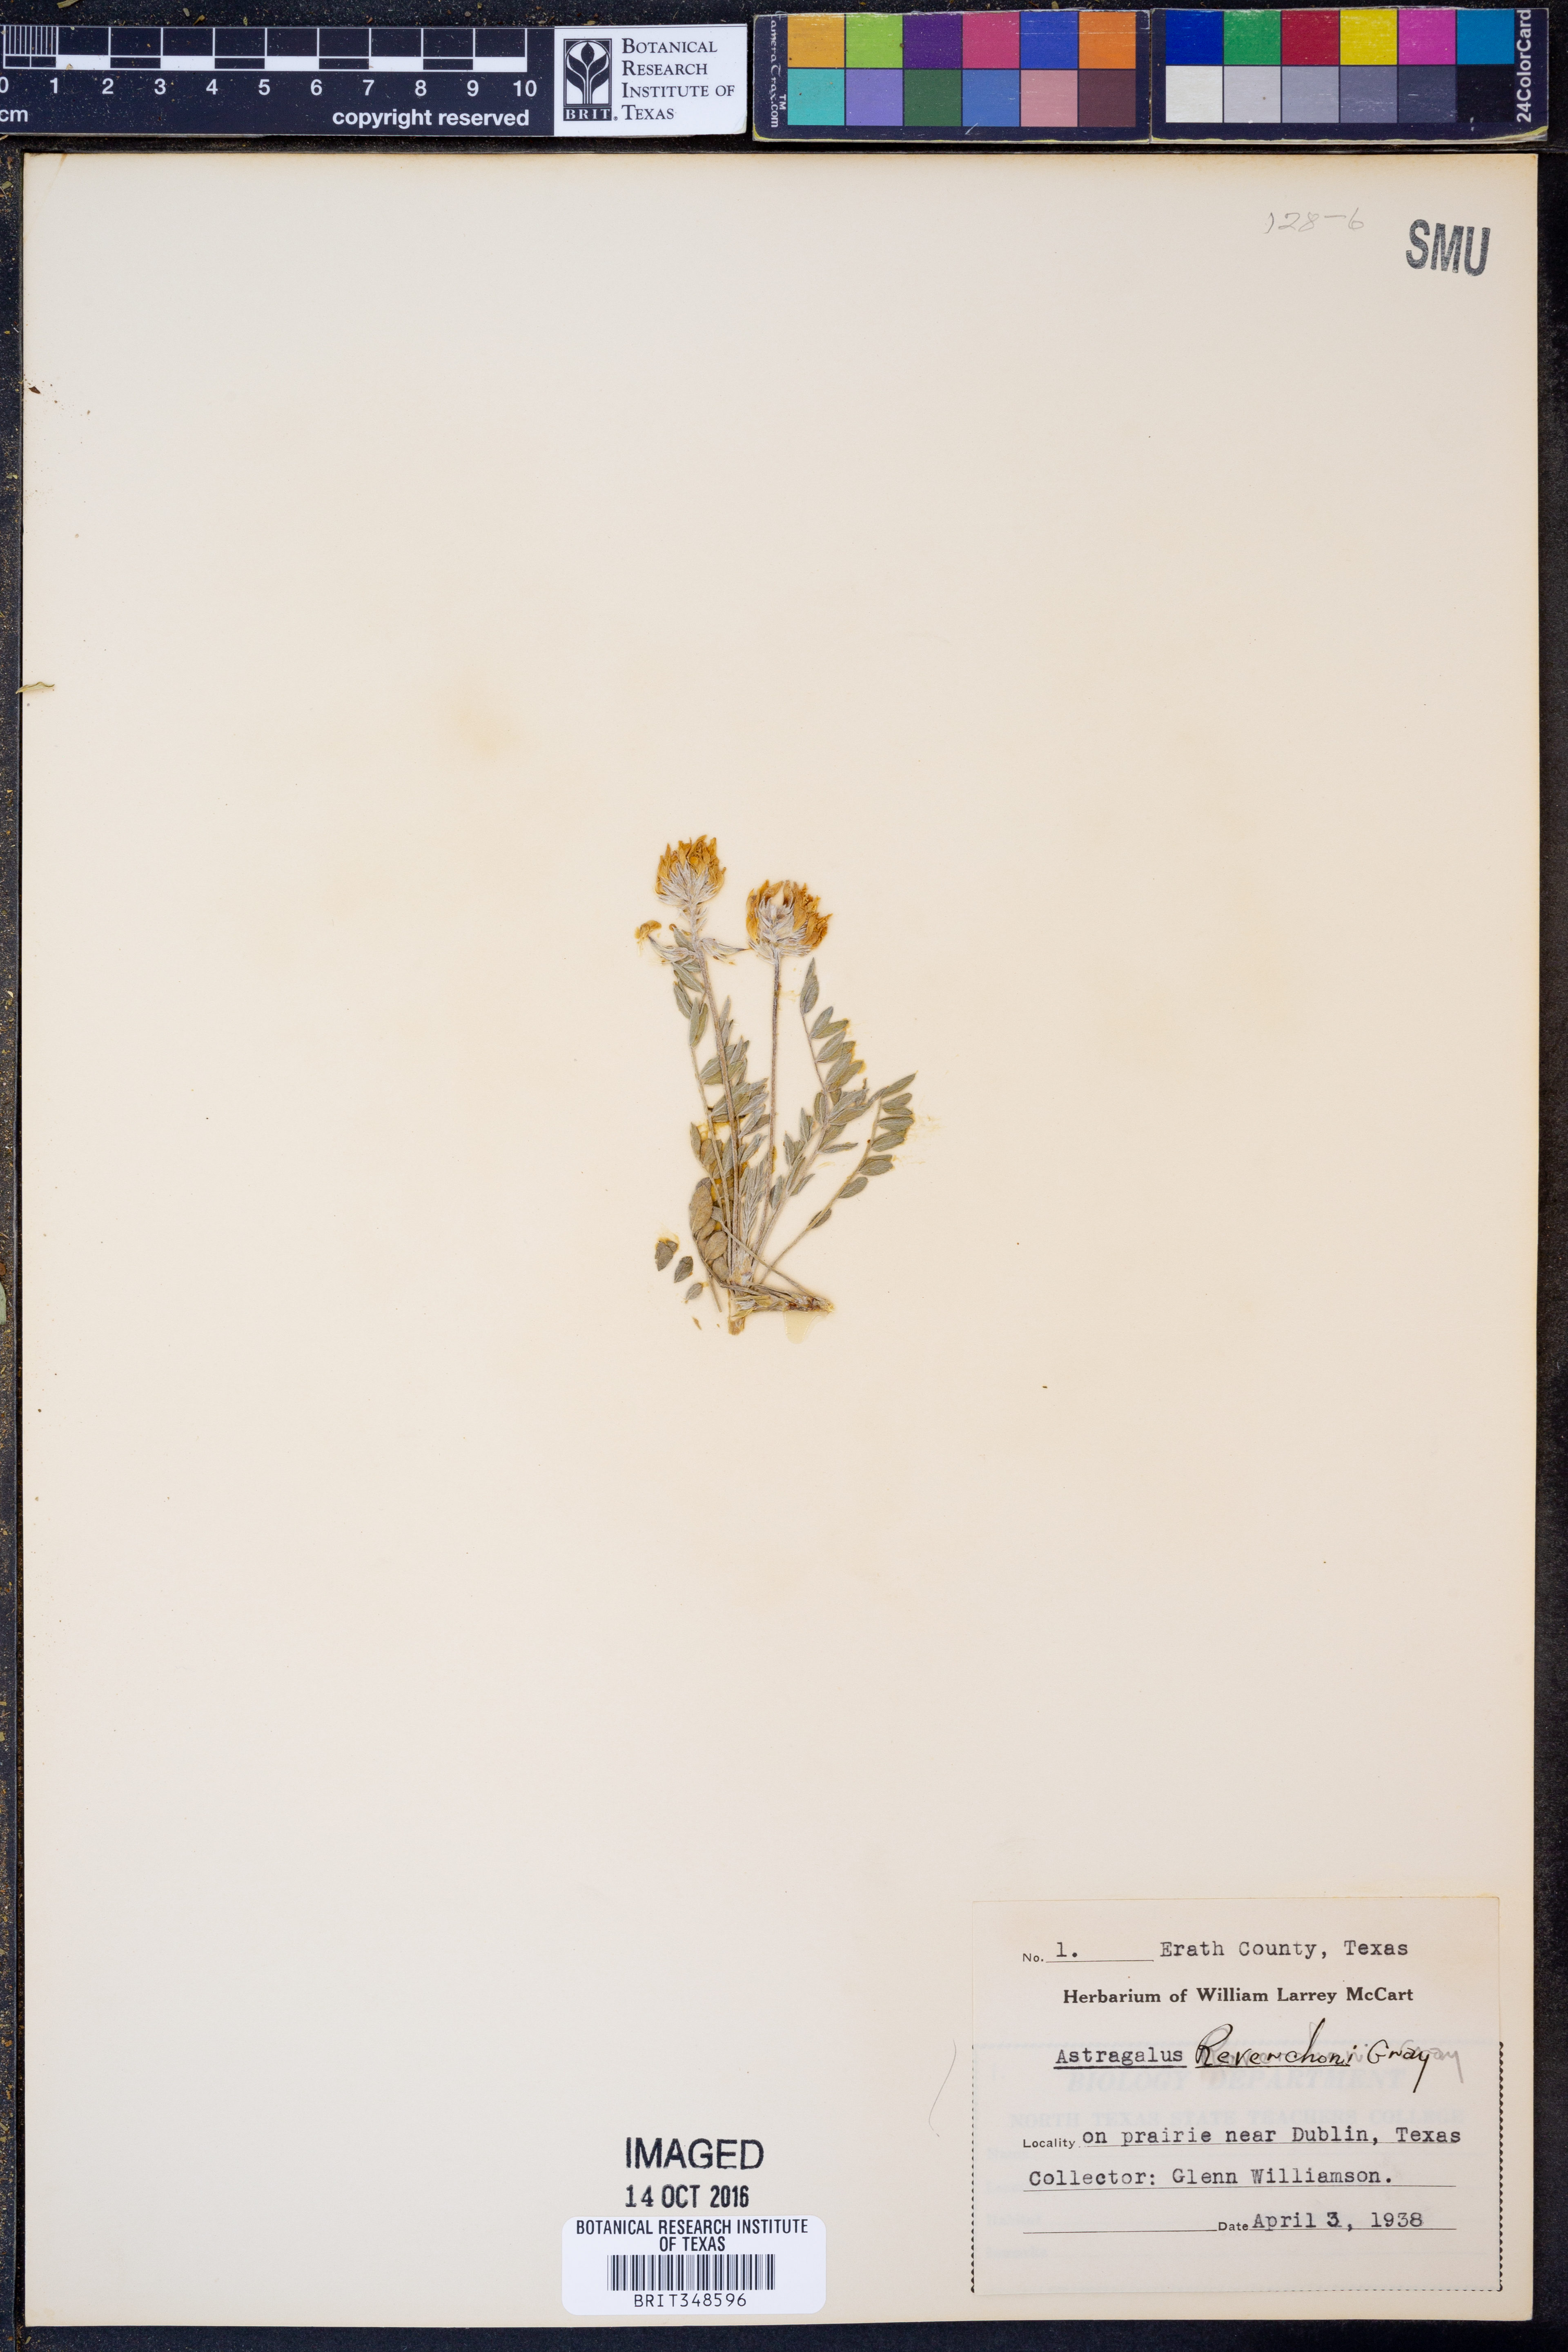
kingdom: Plantae
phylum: Tracheophyta
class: Magnoliopsida
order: Fabales
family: Fabaceae
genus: Astragalus
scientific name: Astragalus lotiflorus
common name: Lotus milk-vetch
